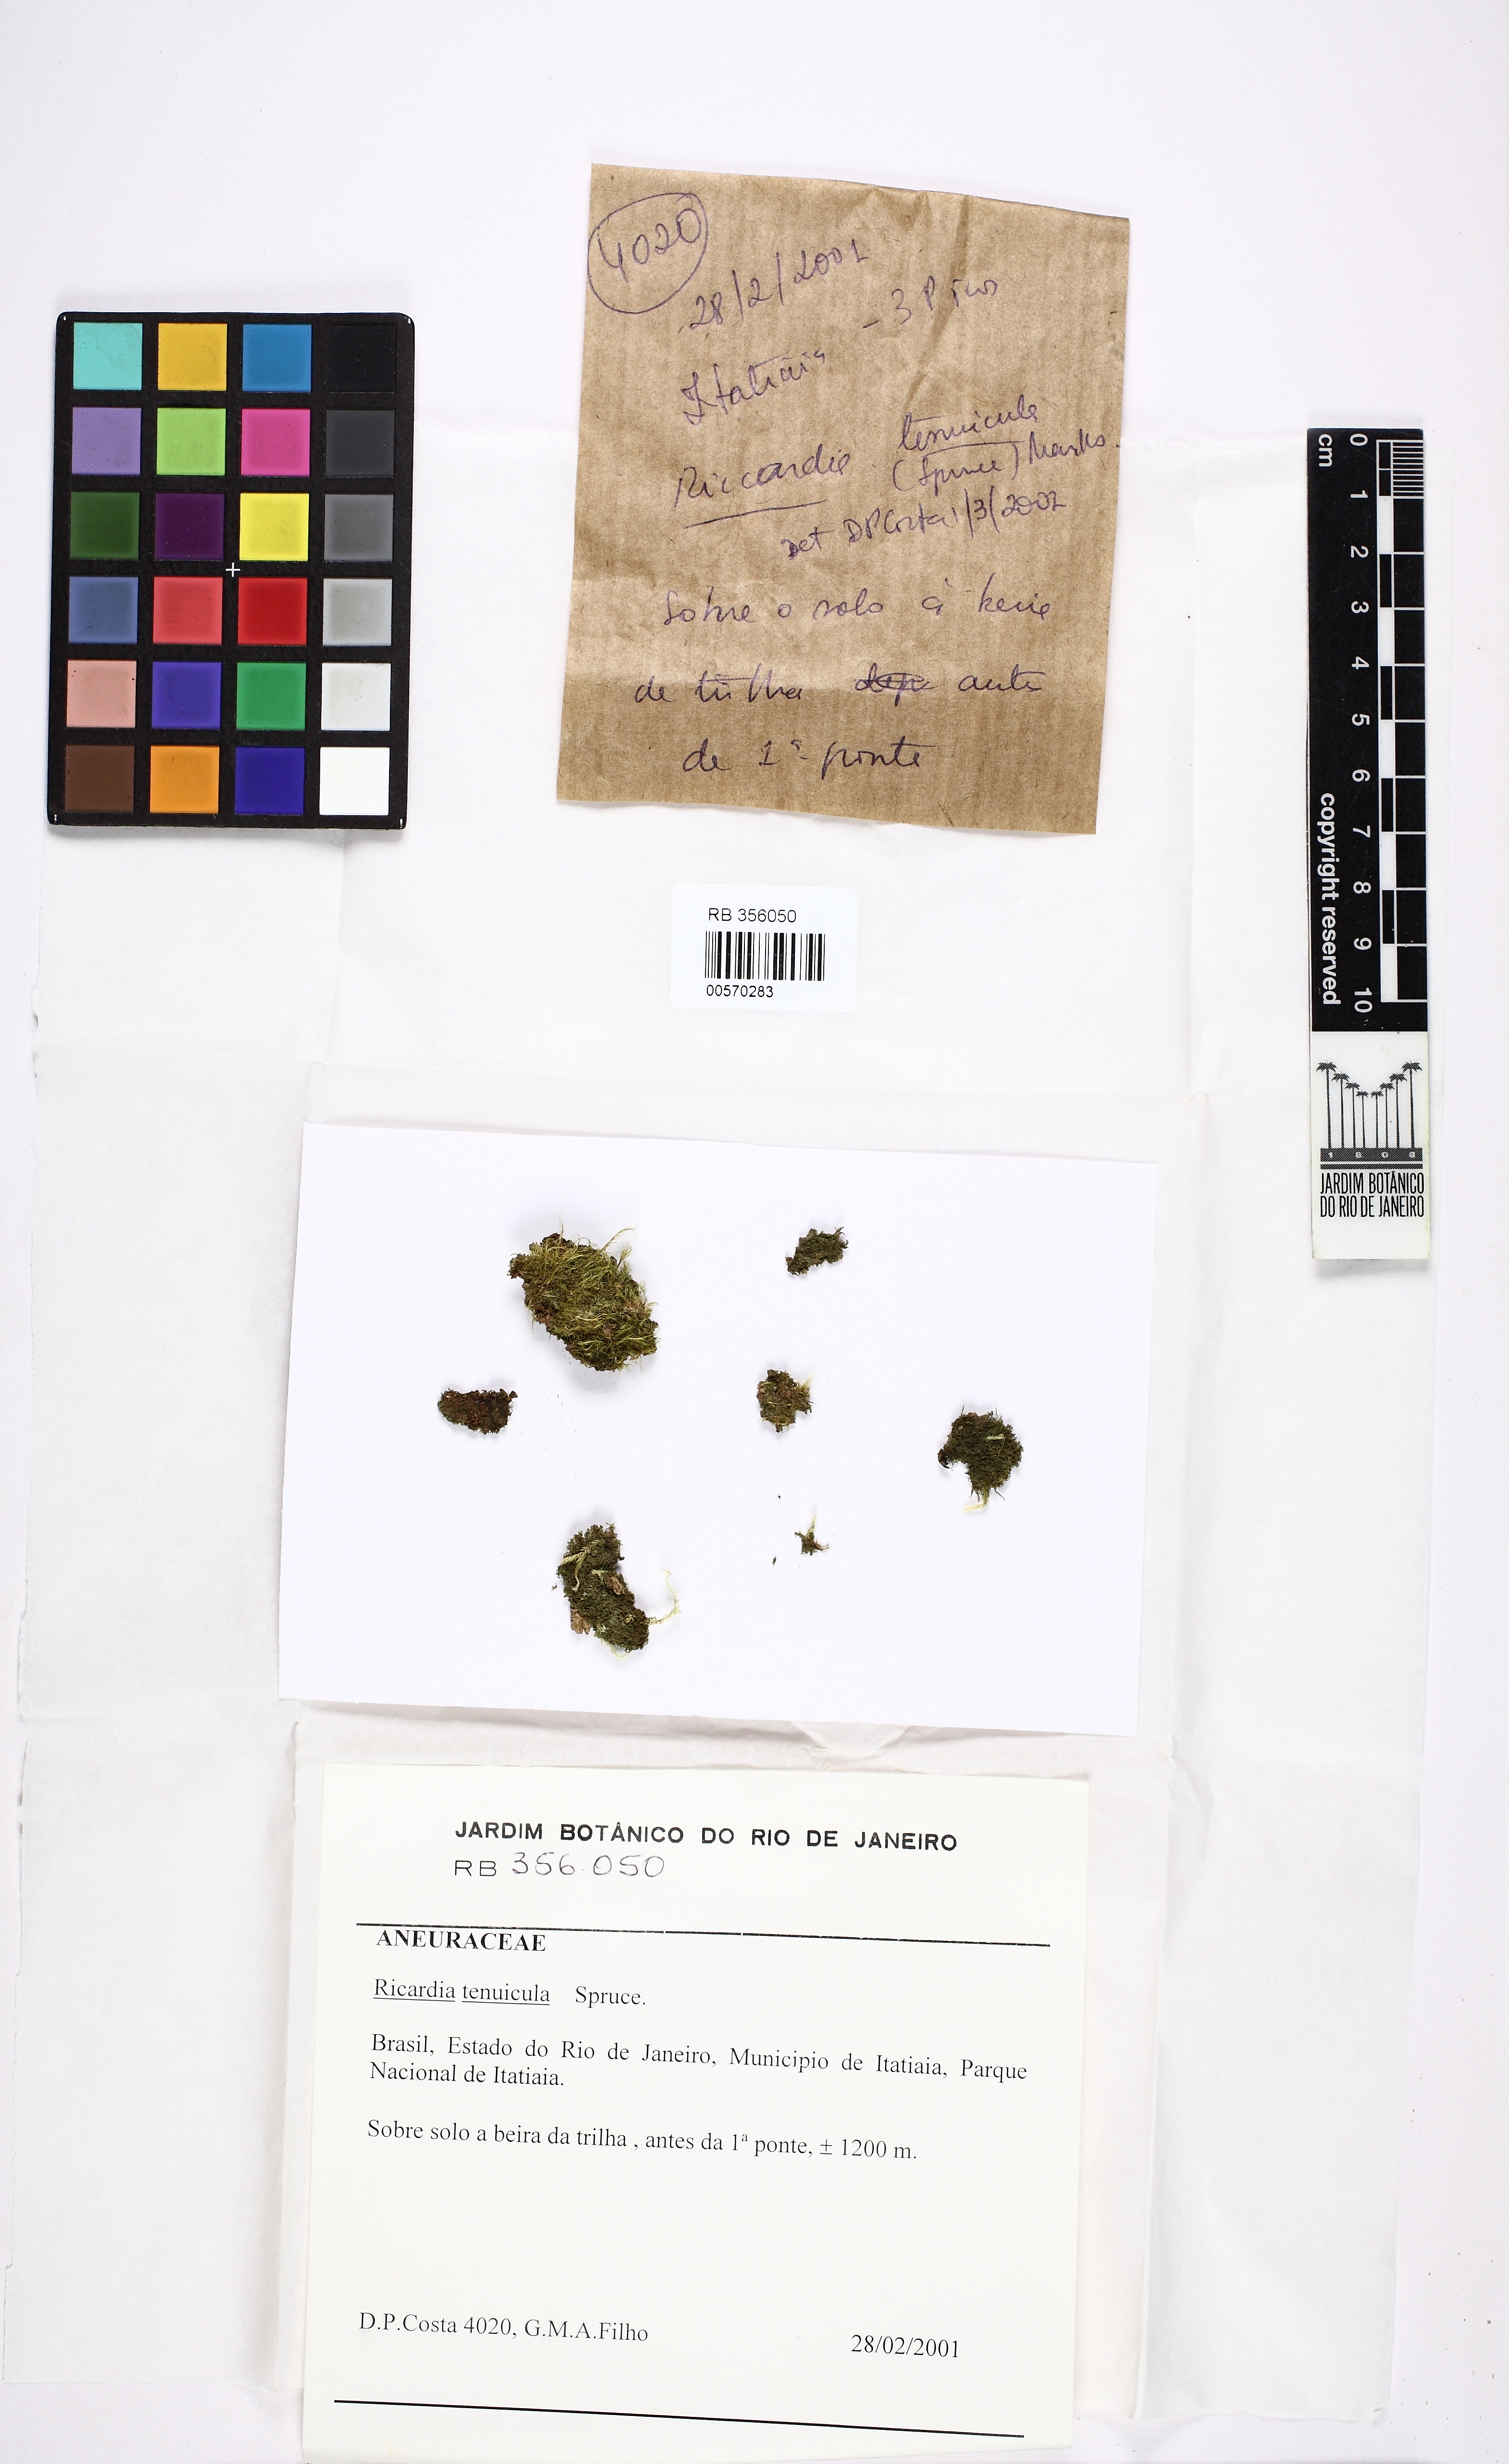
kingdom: Plantae
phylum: Marchantiophyta
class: Jungermanniopsida
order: Metzgeriales
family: Aneuraceae
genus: Riccardia
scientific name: Riccardia leptophylla
